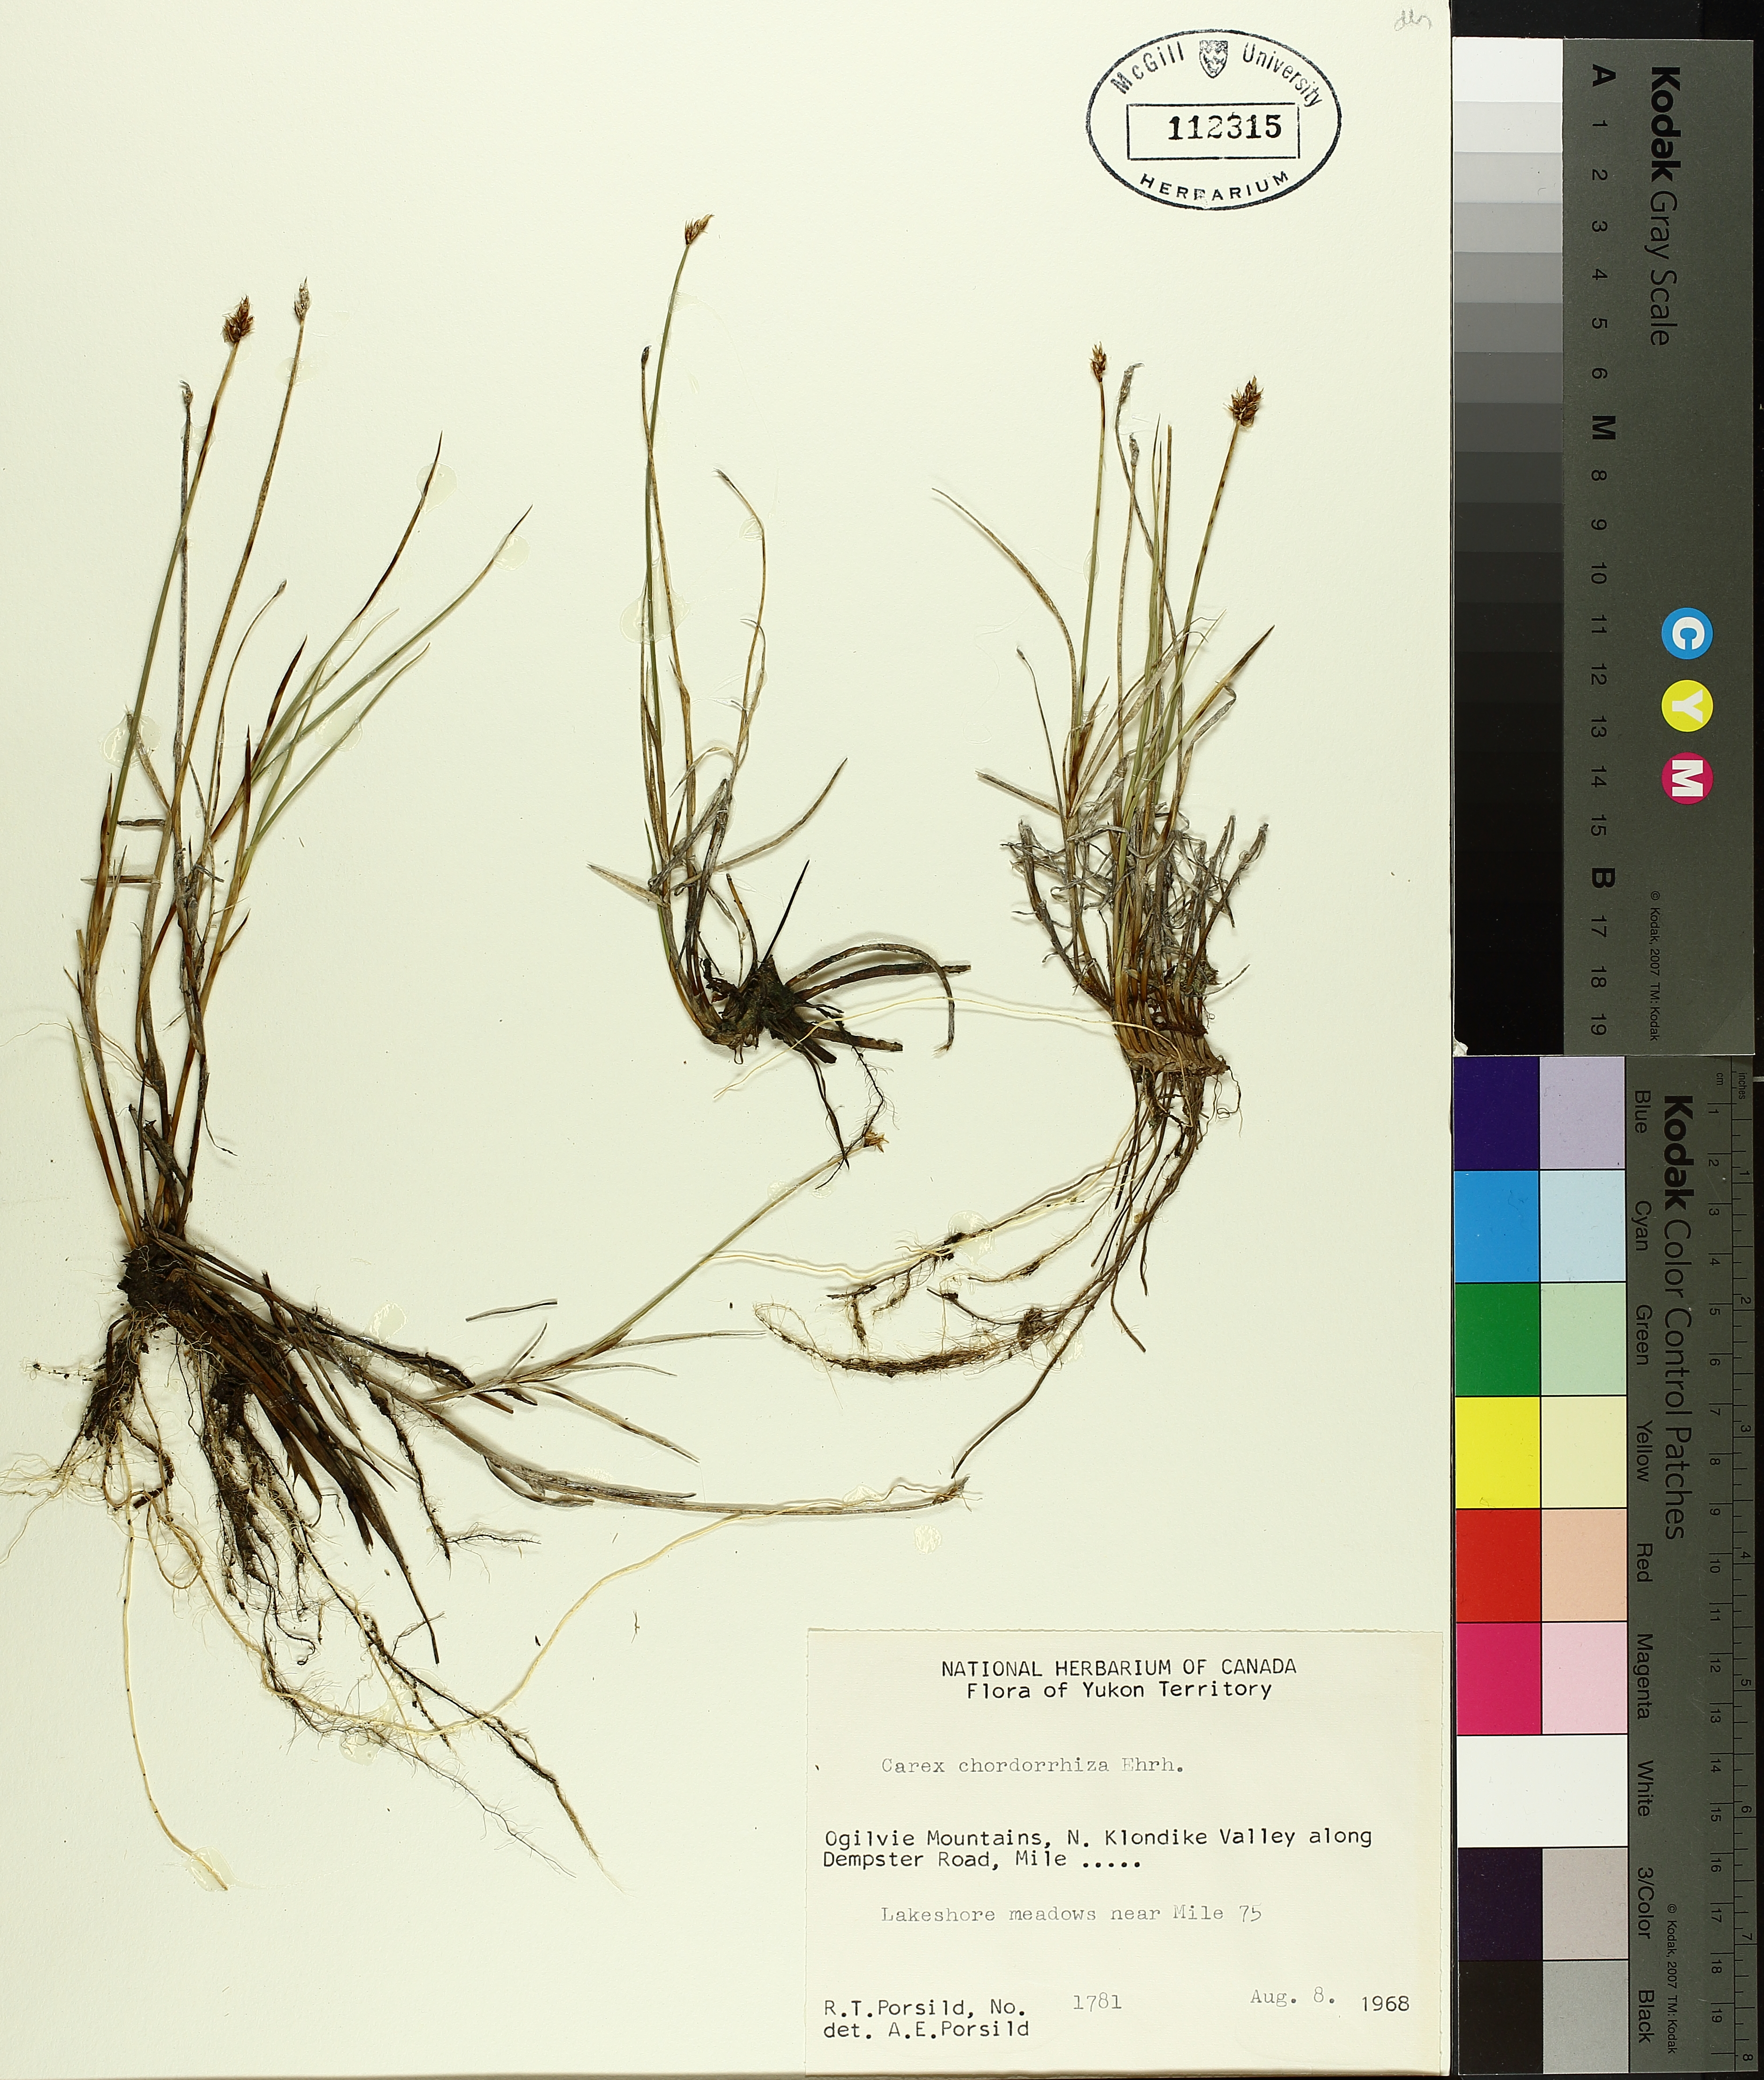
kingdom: Plantae
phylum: Tracheophyta
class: Liliopsida
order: Poales
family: Cyperaceae
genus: Carex
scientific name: Carex
